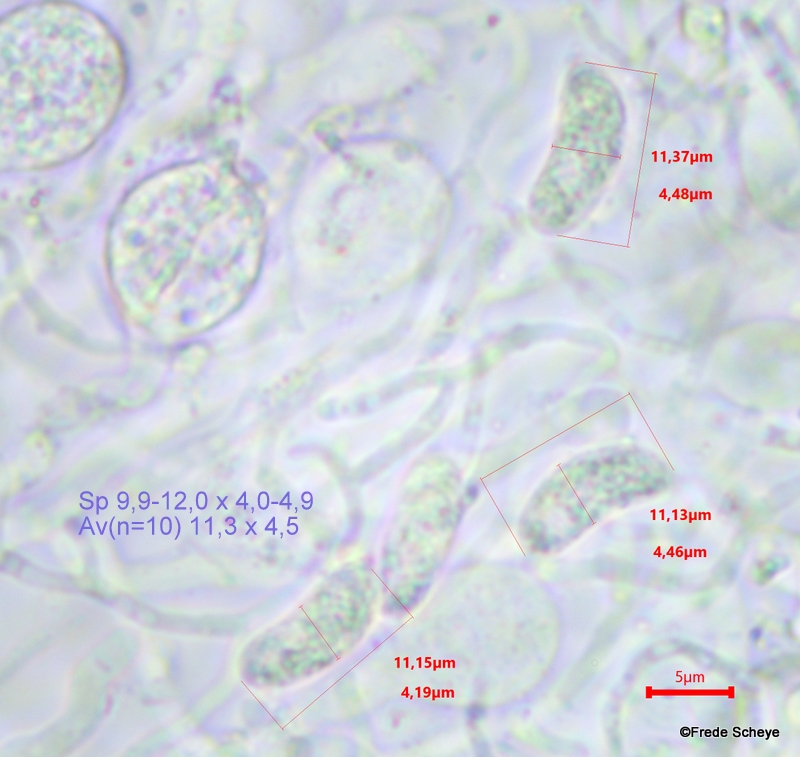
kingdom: Fungi
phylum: Basidiomycota
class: Agaricomycetes
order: Auriculariales
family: Hyaloriaceae
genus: Myxarium
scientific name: Myxarium nucleatum
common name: klar bævretop
